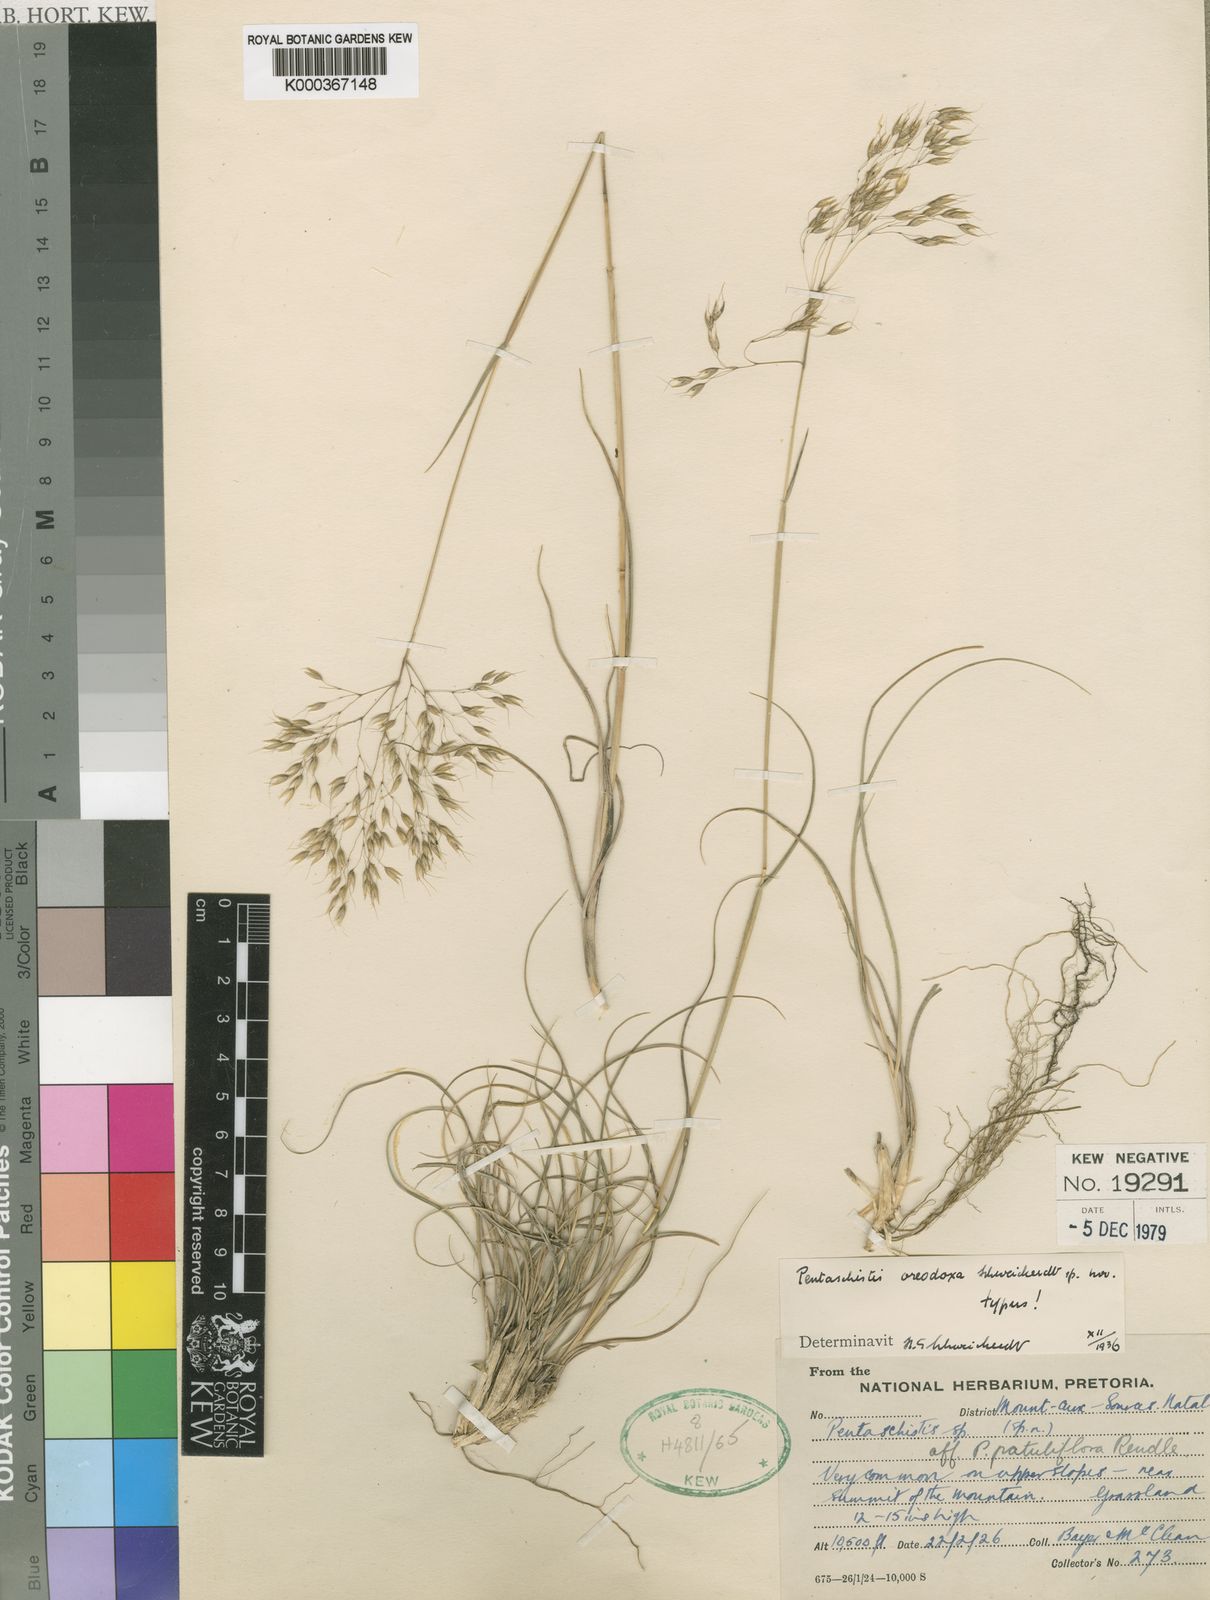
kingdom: Plantae
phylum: Tracheophyta
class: Liliopsida
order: Poales
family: Poaceae
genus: Pentameris
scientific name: Pentameris oreodoxa
